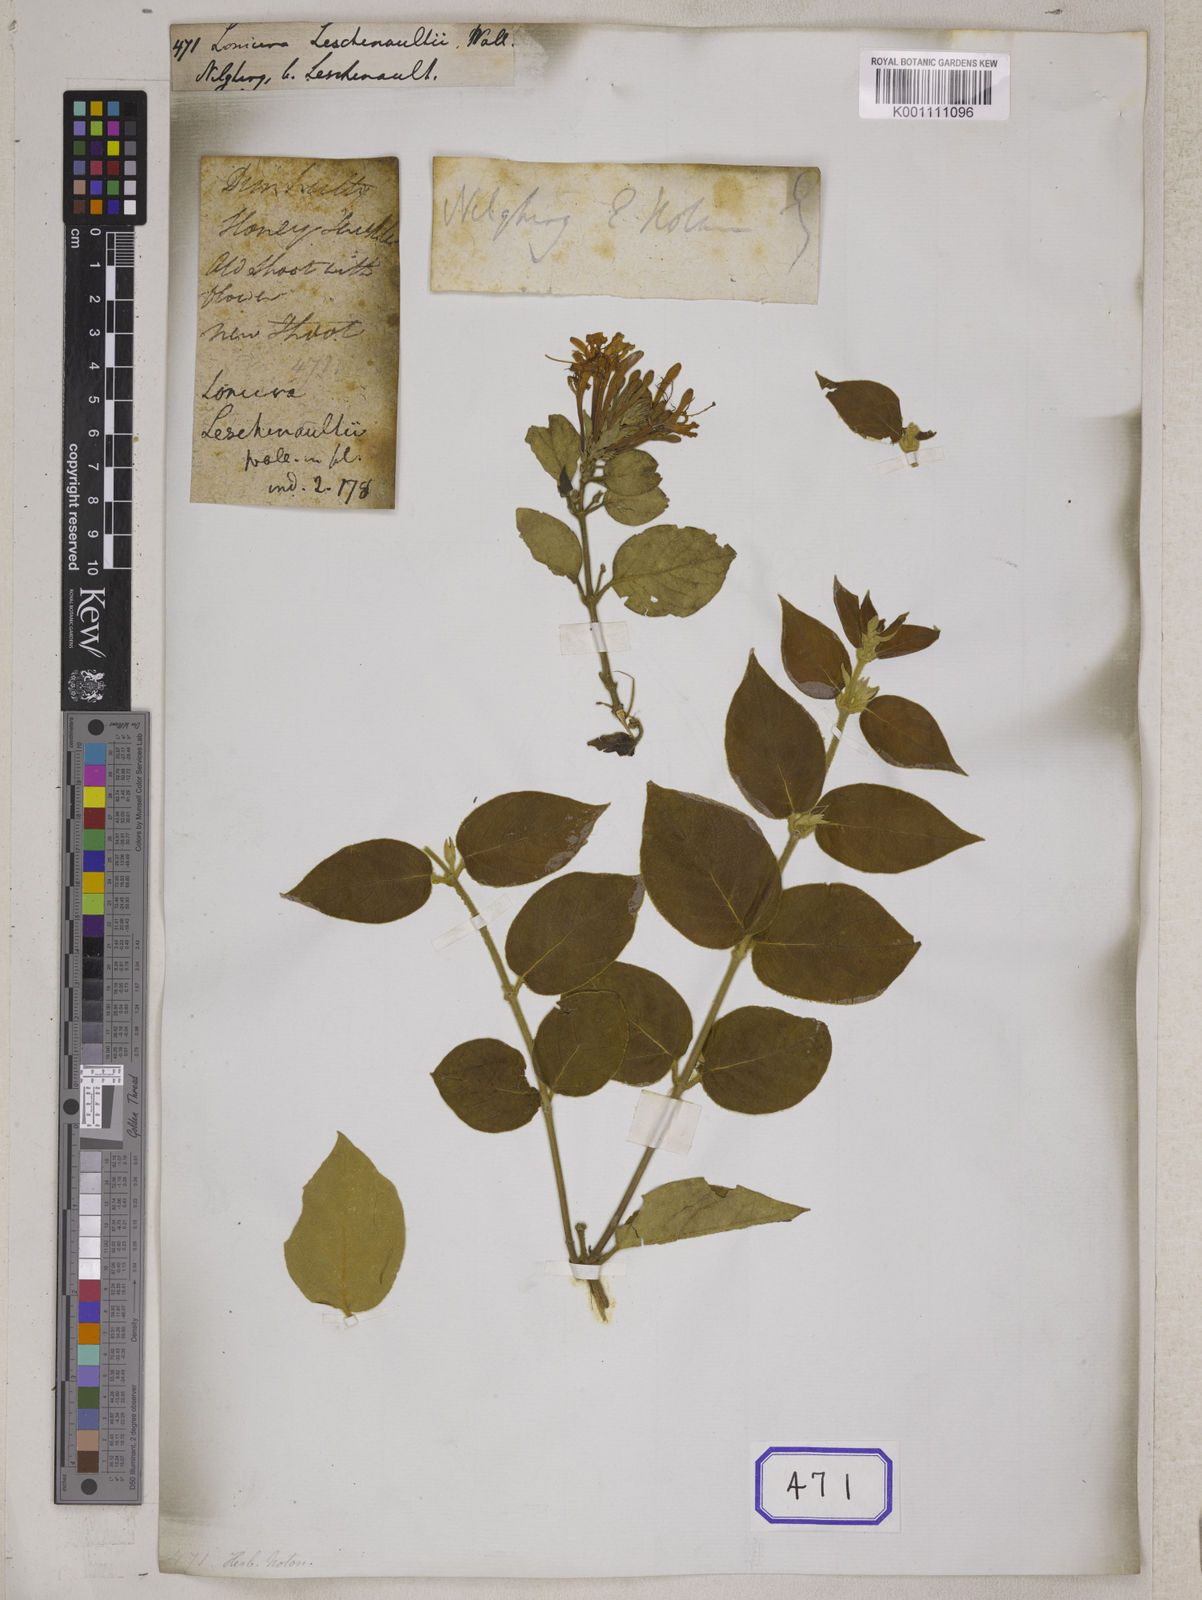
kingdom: Plantae
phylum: Tracheophyta
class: Magnoliopsida
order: Dipsacales
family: Caprifoliaceae
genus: Lonicera
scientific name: Lonicera leschenaultii
